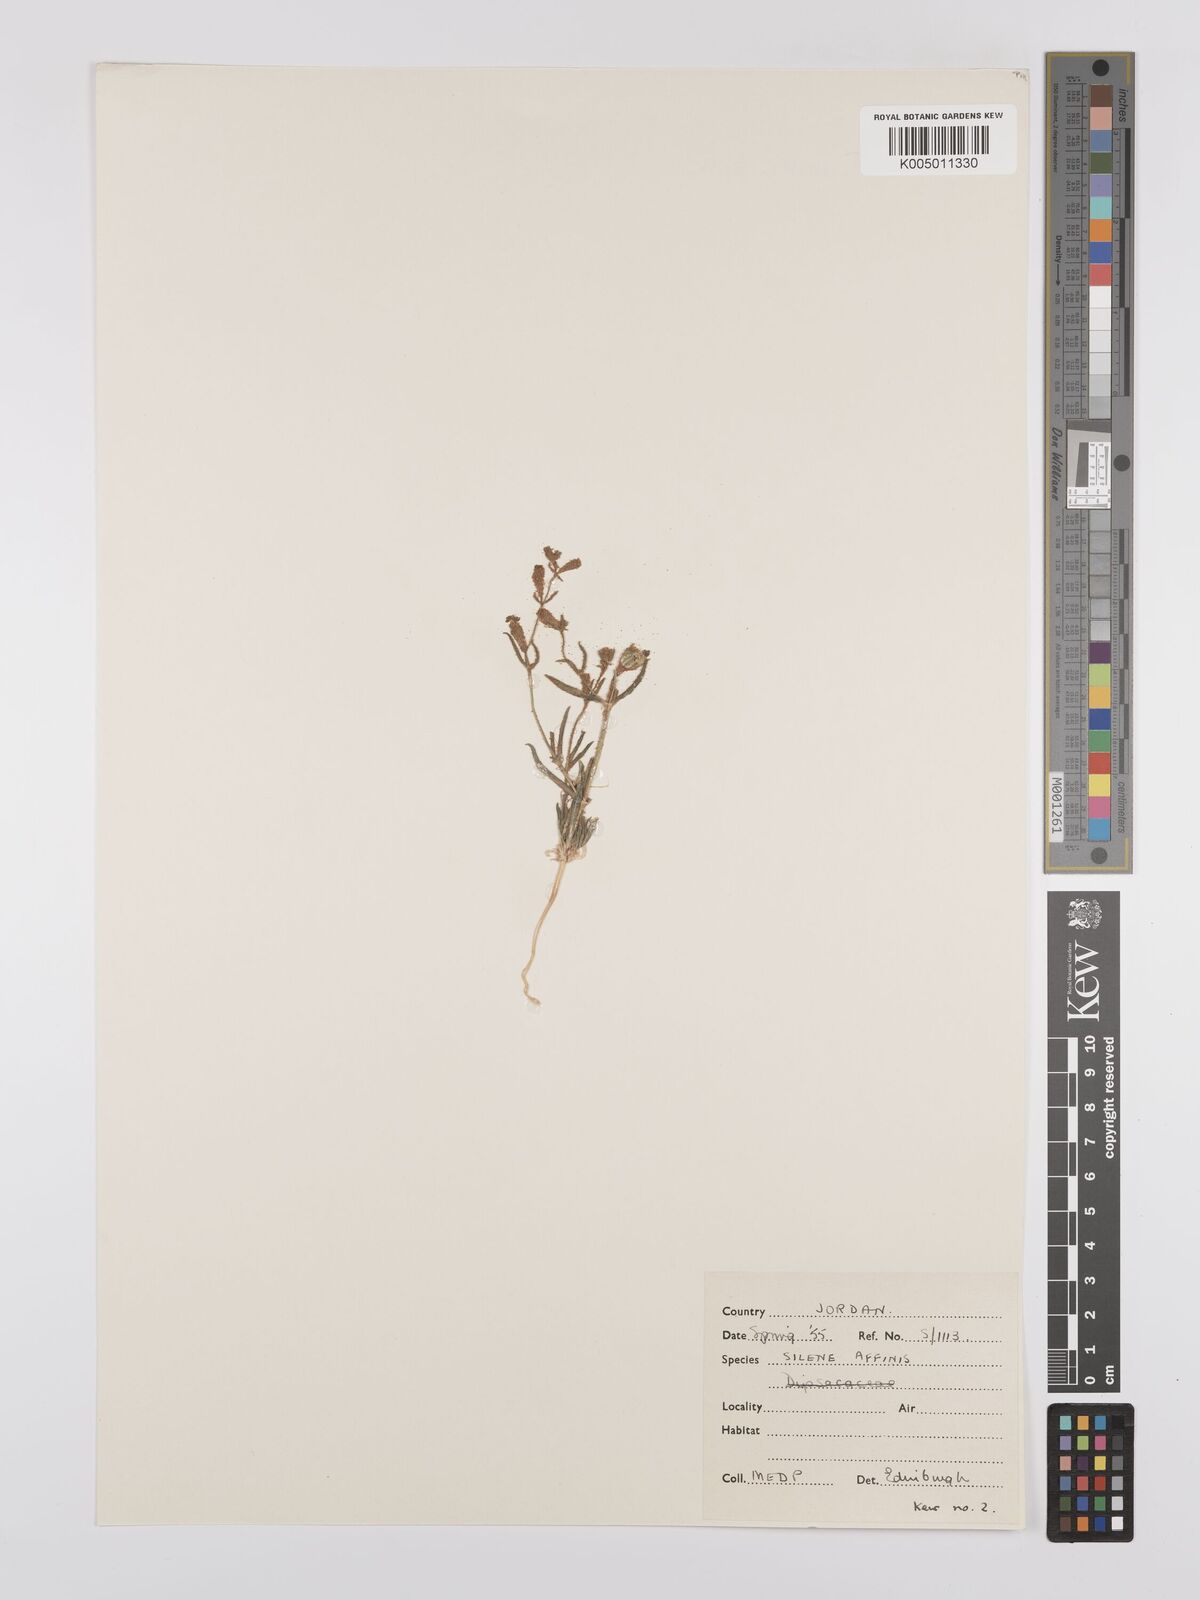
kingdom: Plantae
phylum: Tracheophyta
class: Magnoliopsida
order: Caryophyllales
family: Caryophyllaceae
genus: Silene
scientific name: Silene arabica
